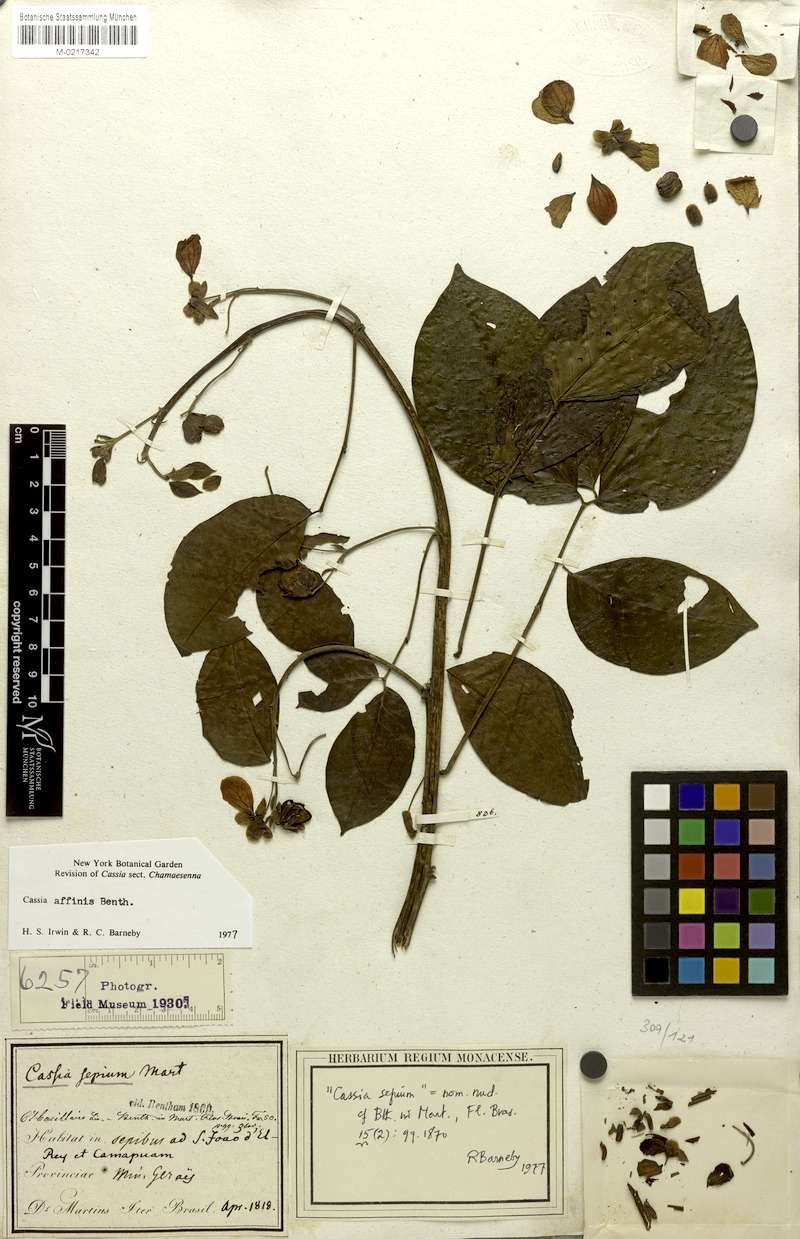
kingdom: Plantae
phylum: Tracheophyta
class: Magnoliopsida
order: Fabales
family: Fabaceae
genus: Senna
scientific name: Senna affinis
